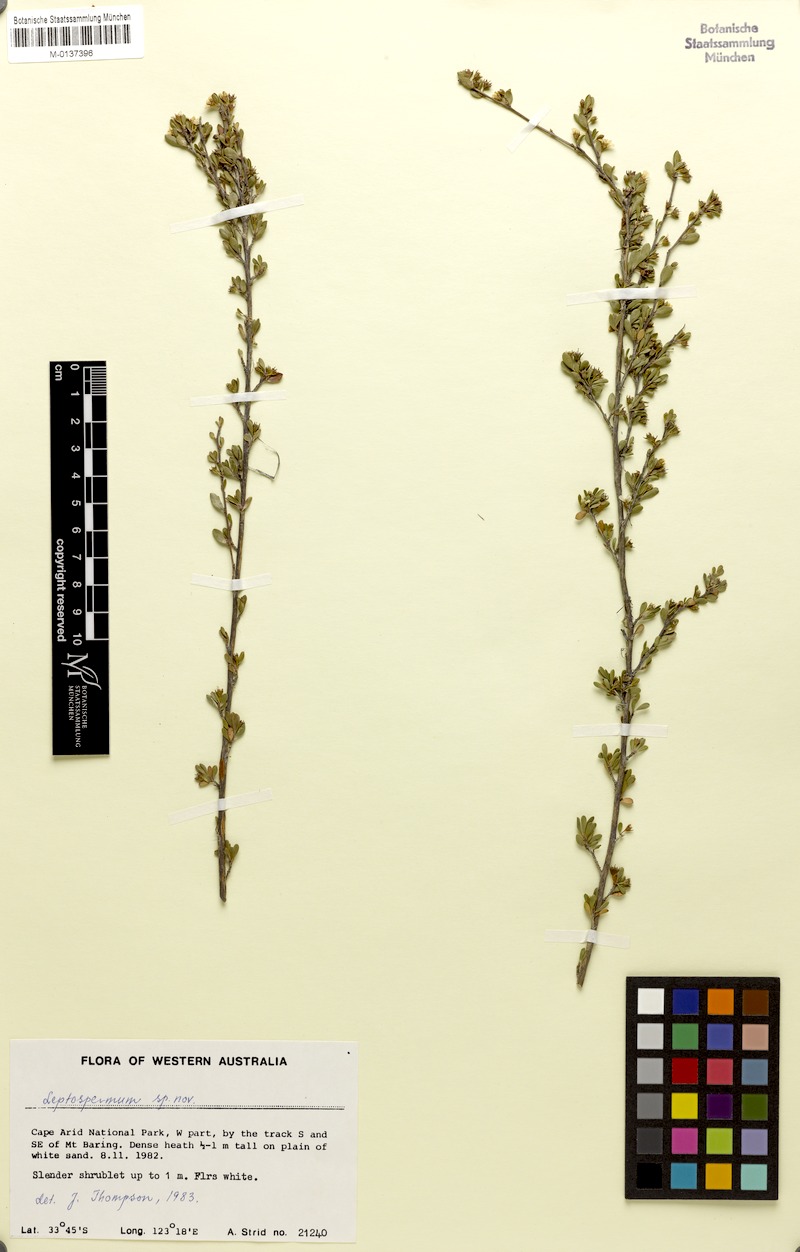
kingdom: Plantae
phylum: Tracheophyta
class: Magnoliopsida
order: Myrtales
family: Myrtaceae
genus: Leptospermum
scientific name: Leptospermum
